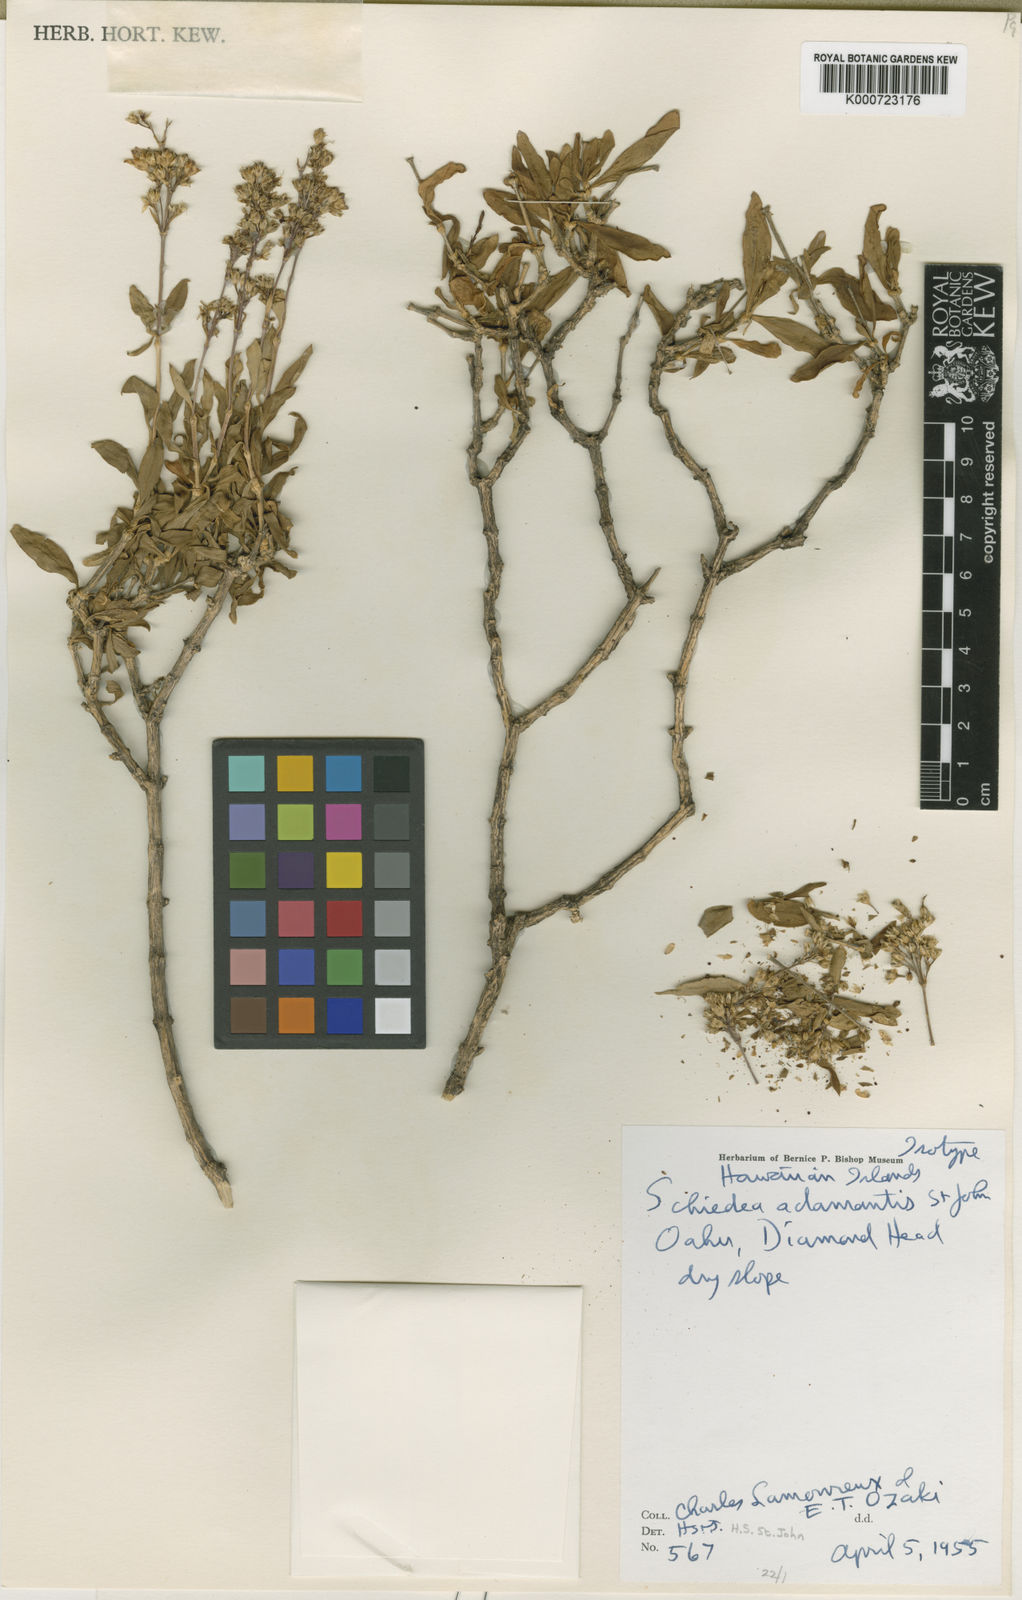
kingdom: Plantae
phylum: Tracheophyta
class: Magnoliopsida
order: Caryophyllales
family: Caryophyllaceae
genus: Schiedea
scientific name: Schiedea adamantis
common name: Diamond-head schiedea
